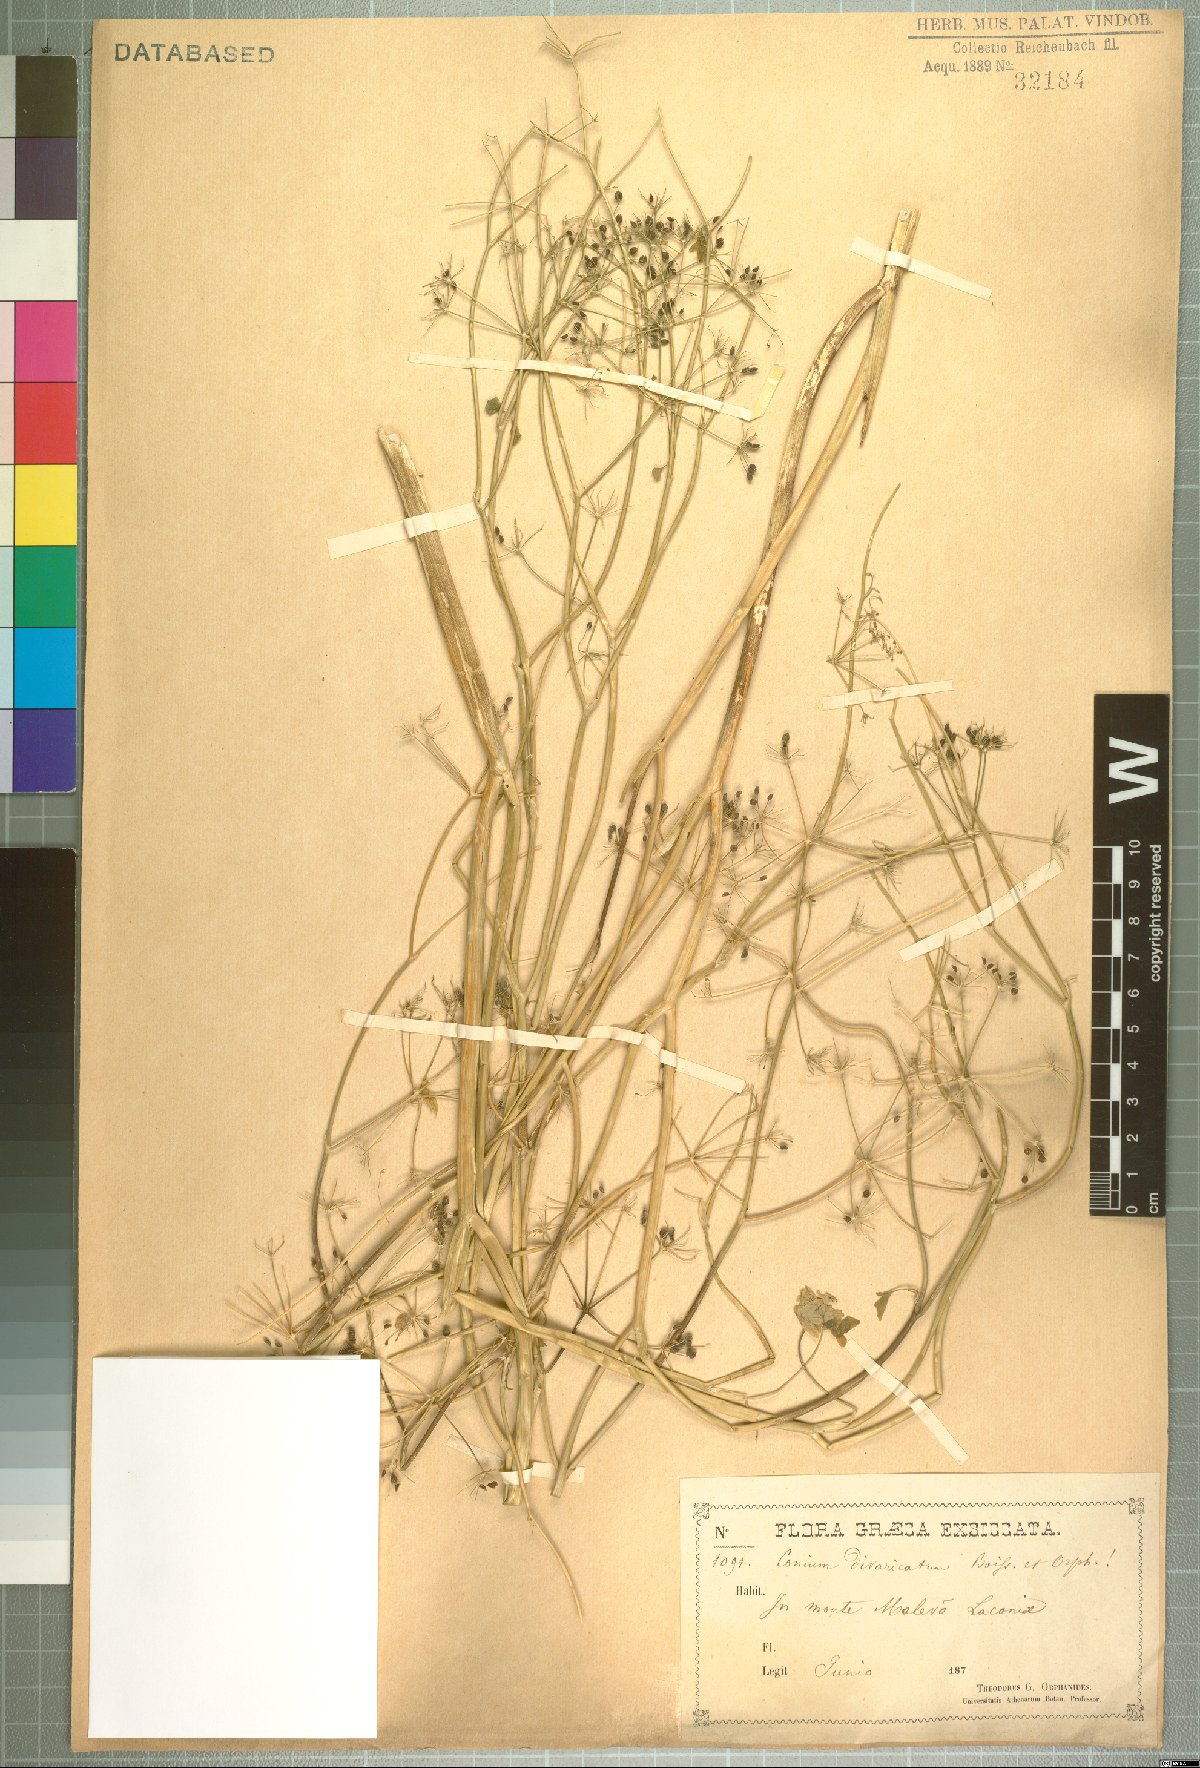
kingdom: Plantae
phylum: Tracheophyta
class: Magnoliopsida
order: Apiales
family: Apiaceae
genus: Conium
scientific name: Conium divaricatum
